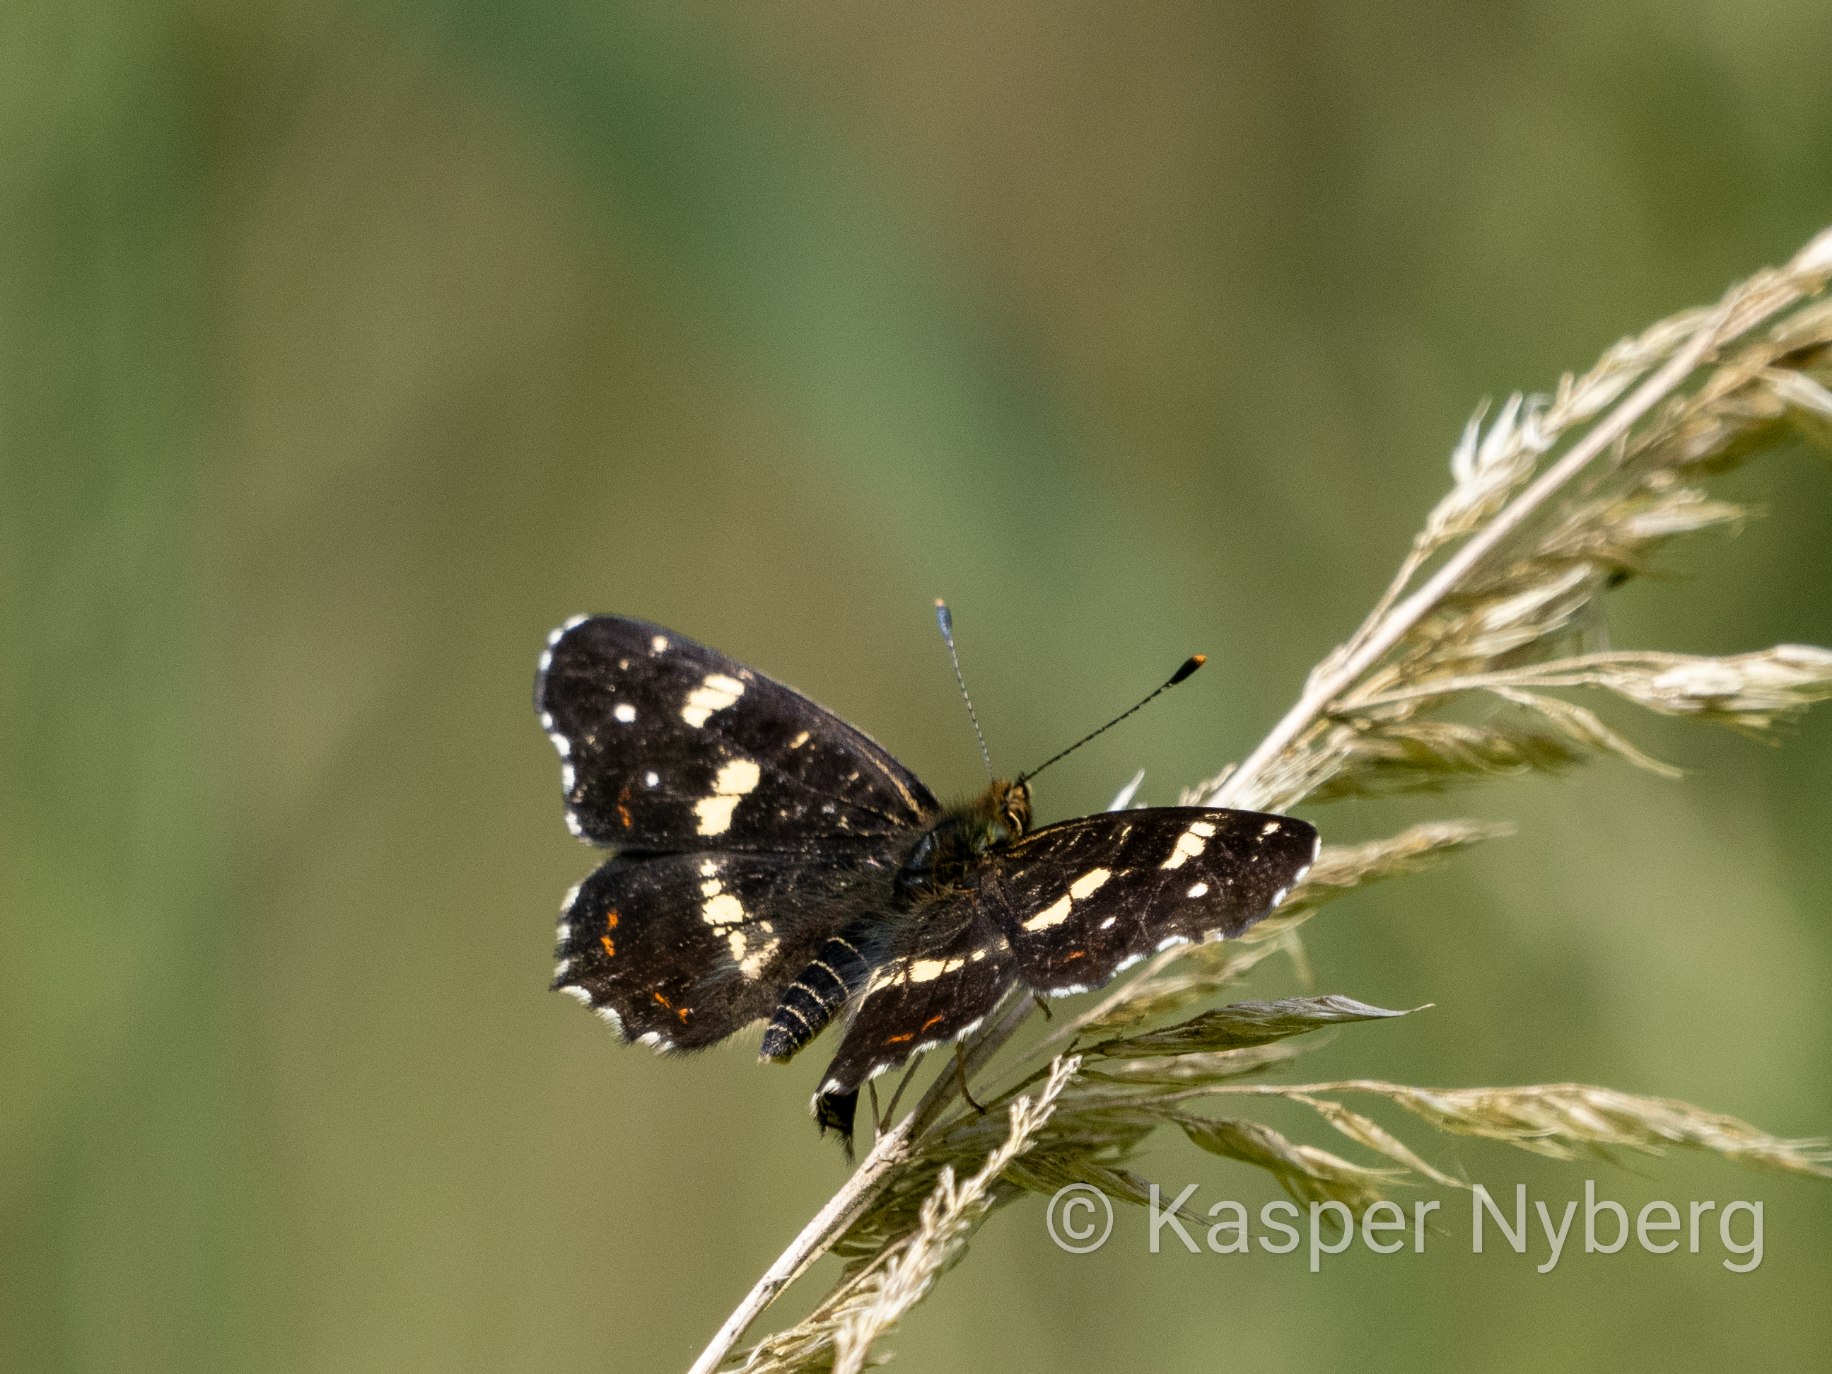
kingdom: Animalia
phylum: Arthropoda
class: Insecta
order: Lepidoptera
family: Nymphalidae
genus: Araschnia
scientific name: Araschnia levana
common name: Nældesommerfugl
